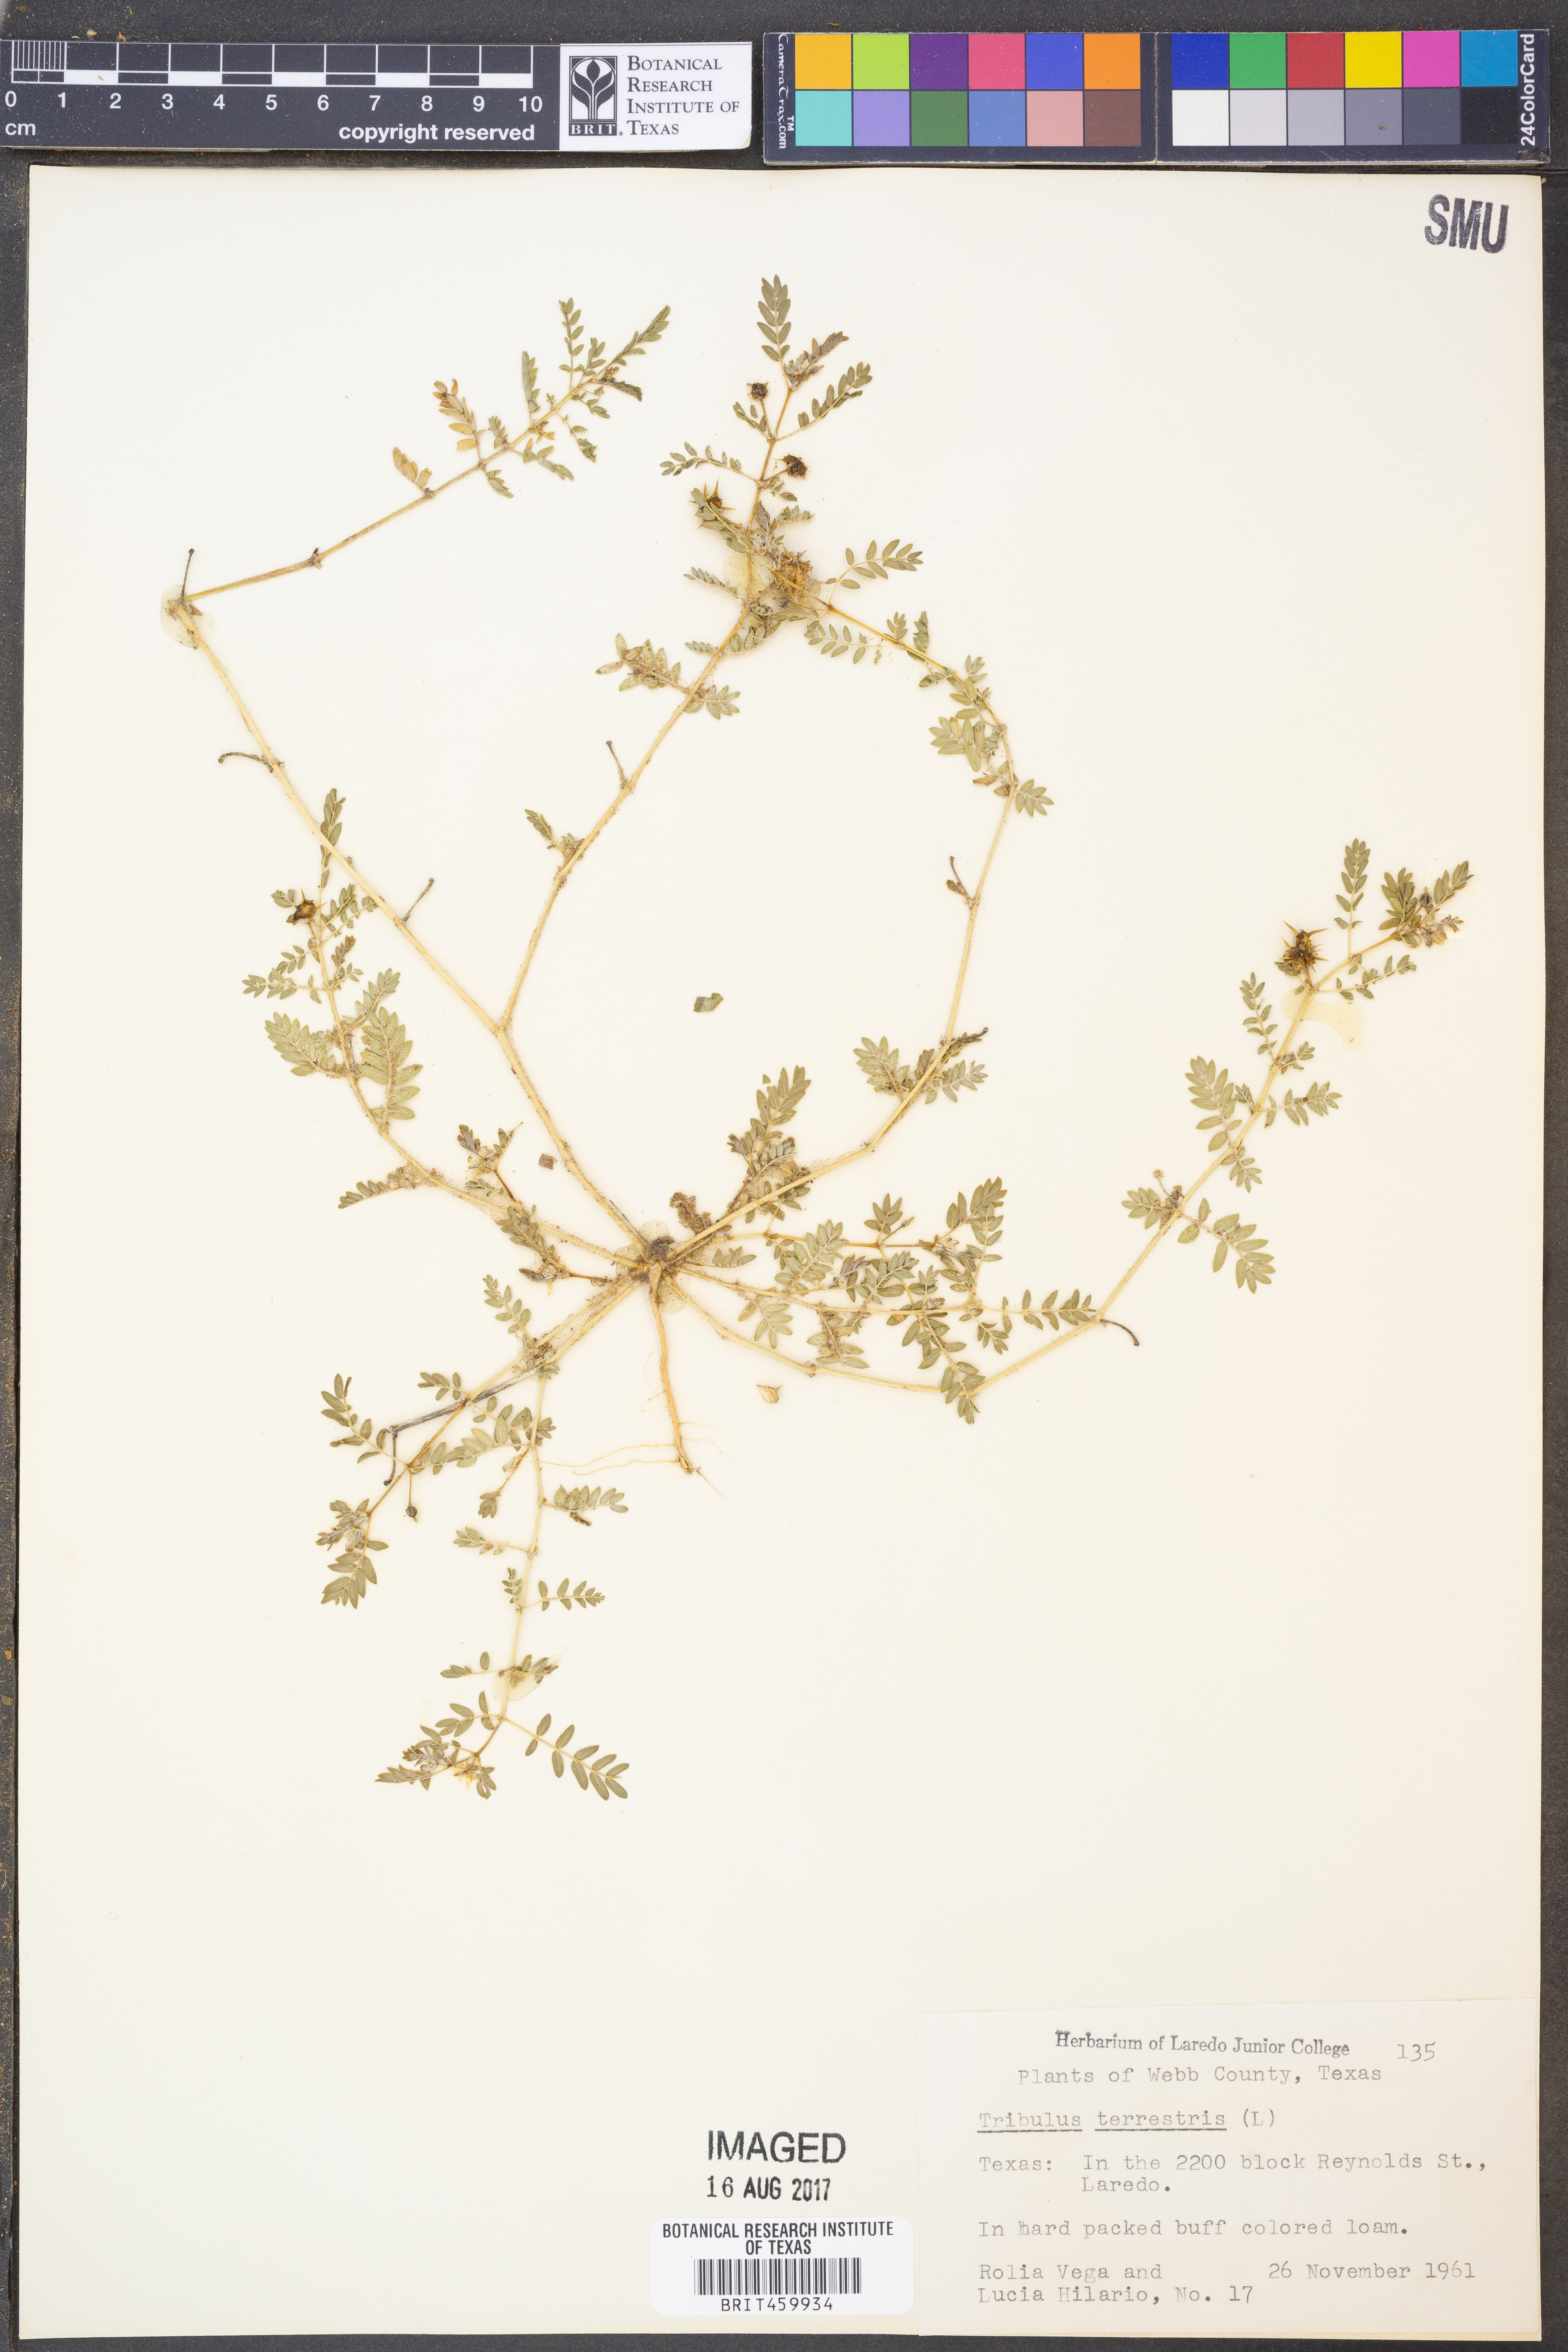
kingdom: Plantae
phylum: Tracheophyta
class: Magnoliopsida
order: Zygophyllales
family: Zygophyllaceae
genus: Tribulus
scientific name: Tribulus terrestris
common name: Puncturevine
